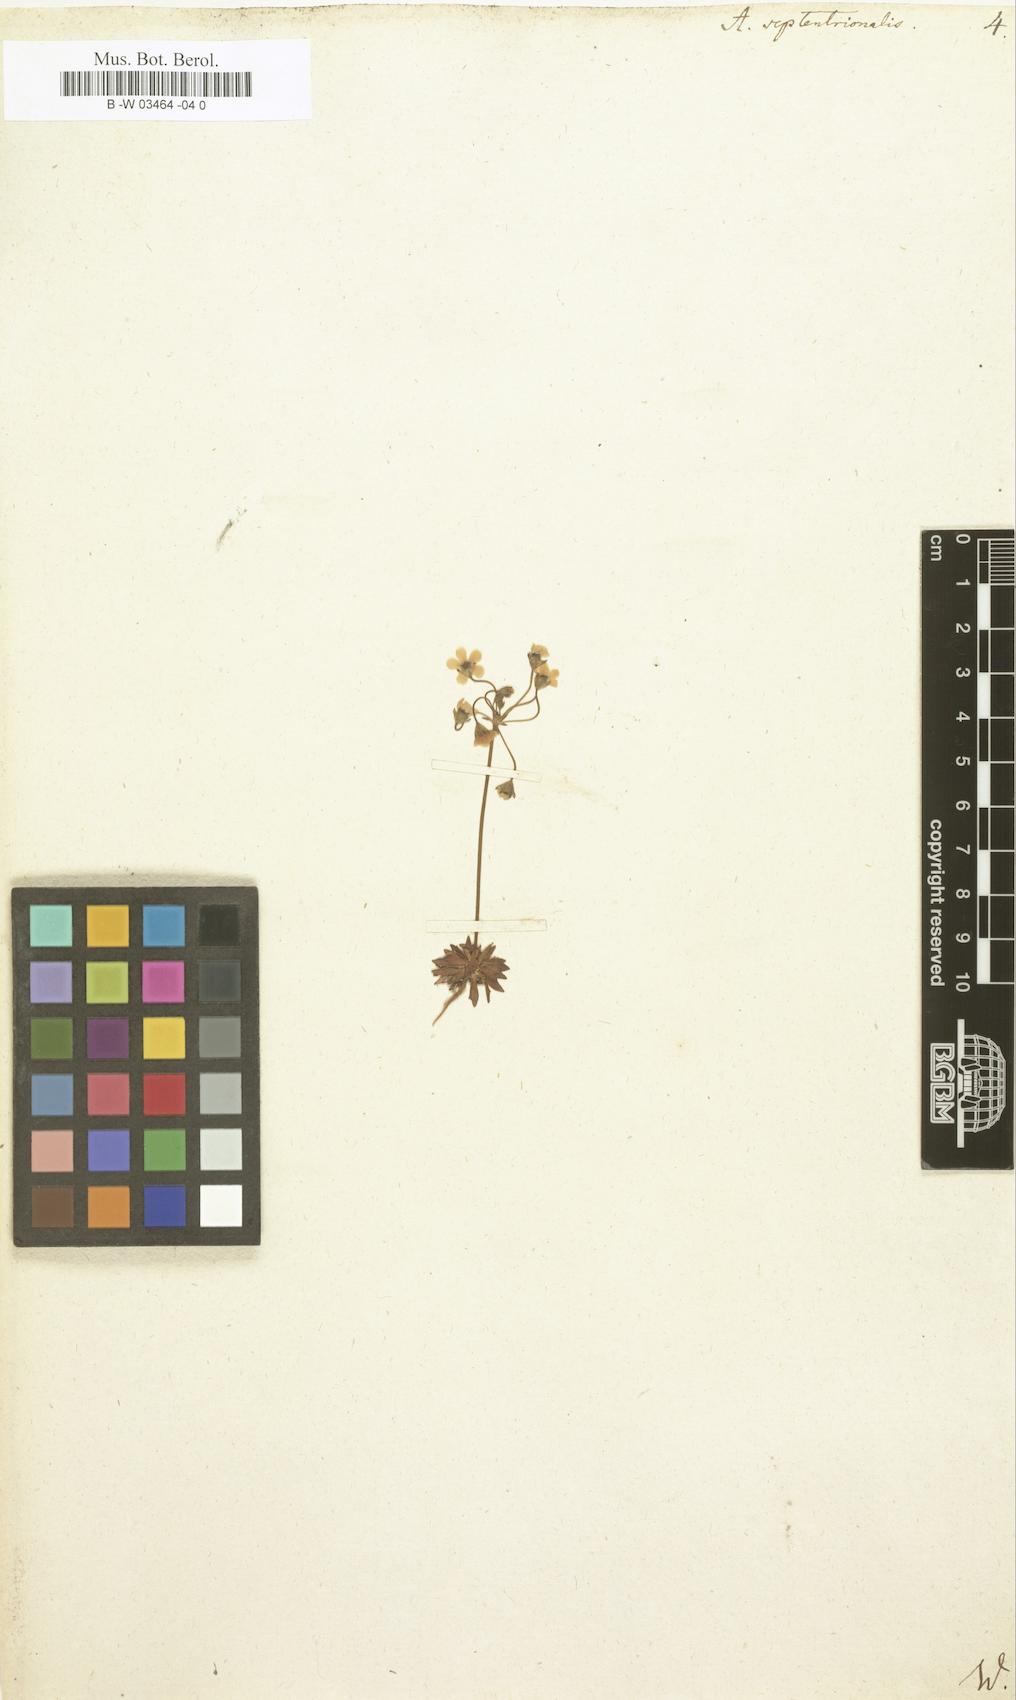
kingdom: Plantae
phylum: Tracheophyta
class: Magnoliopsida
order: Ericales
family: Primulaceae
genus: Androsace
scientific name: Androsace septentrionalis
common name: Hairy northern fairy-candelabra
